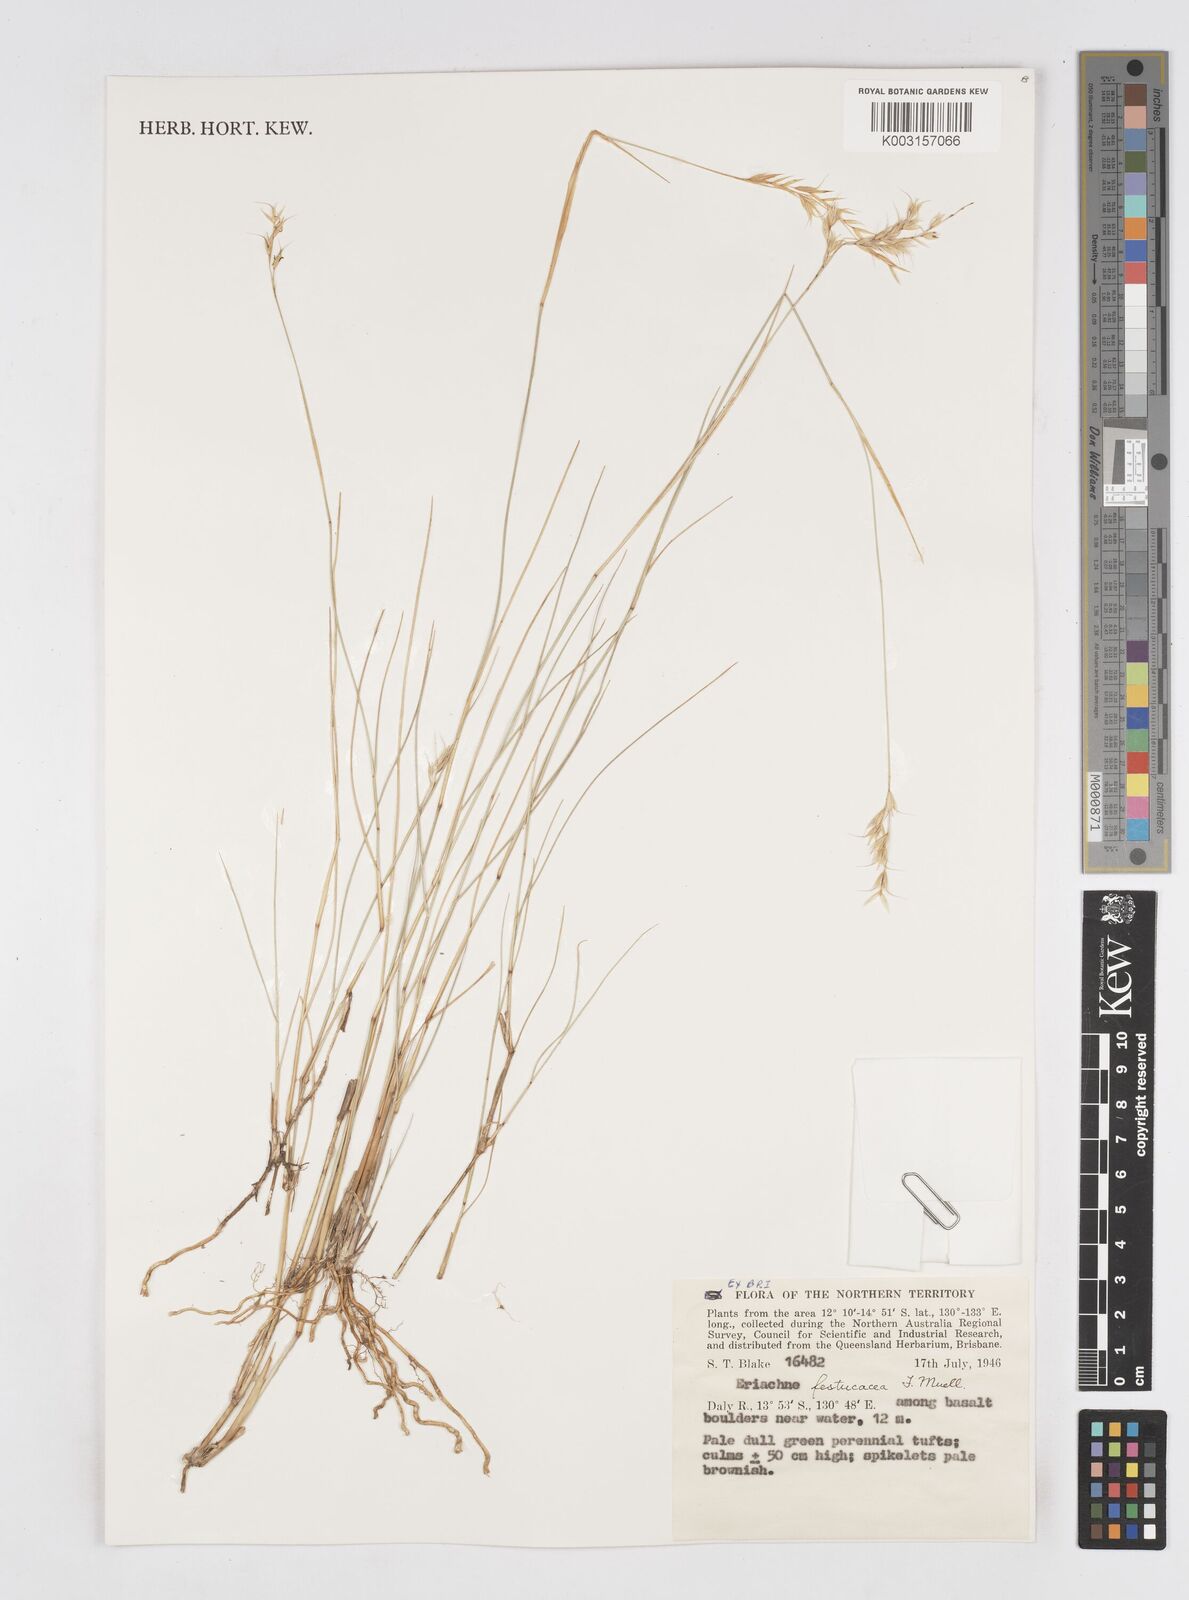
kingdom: Plantae
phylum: Tracheophyta
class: Liliopsida
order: Poales
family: Poaceae
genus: Eriachne
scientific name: Eriachne festucacea
